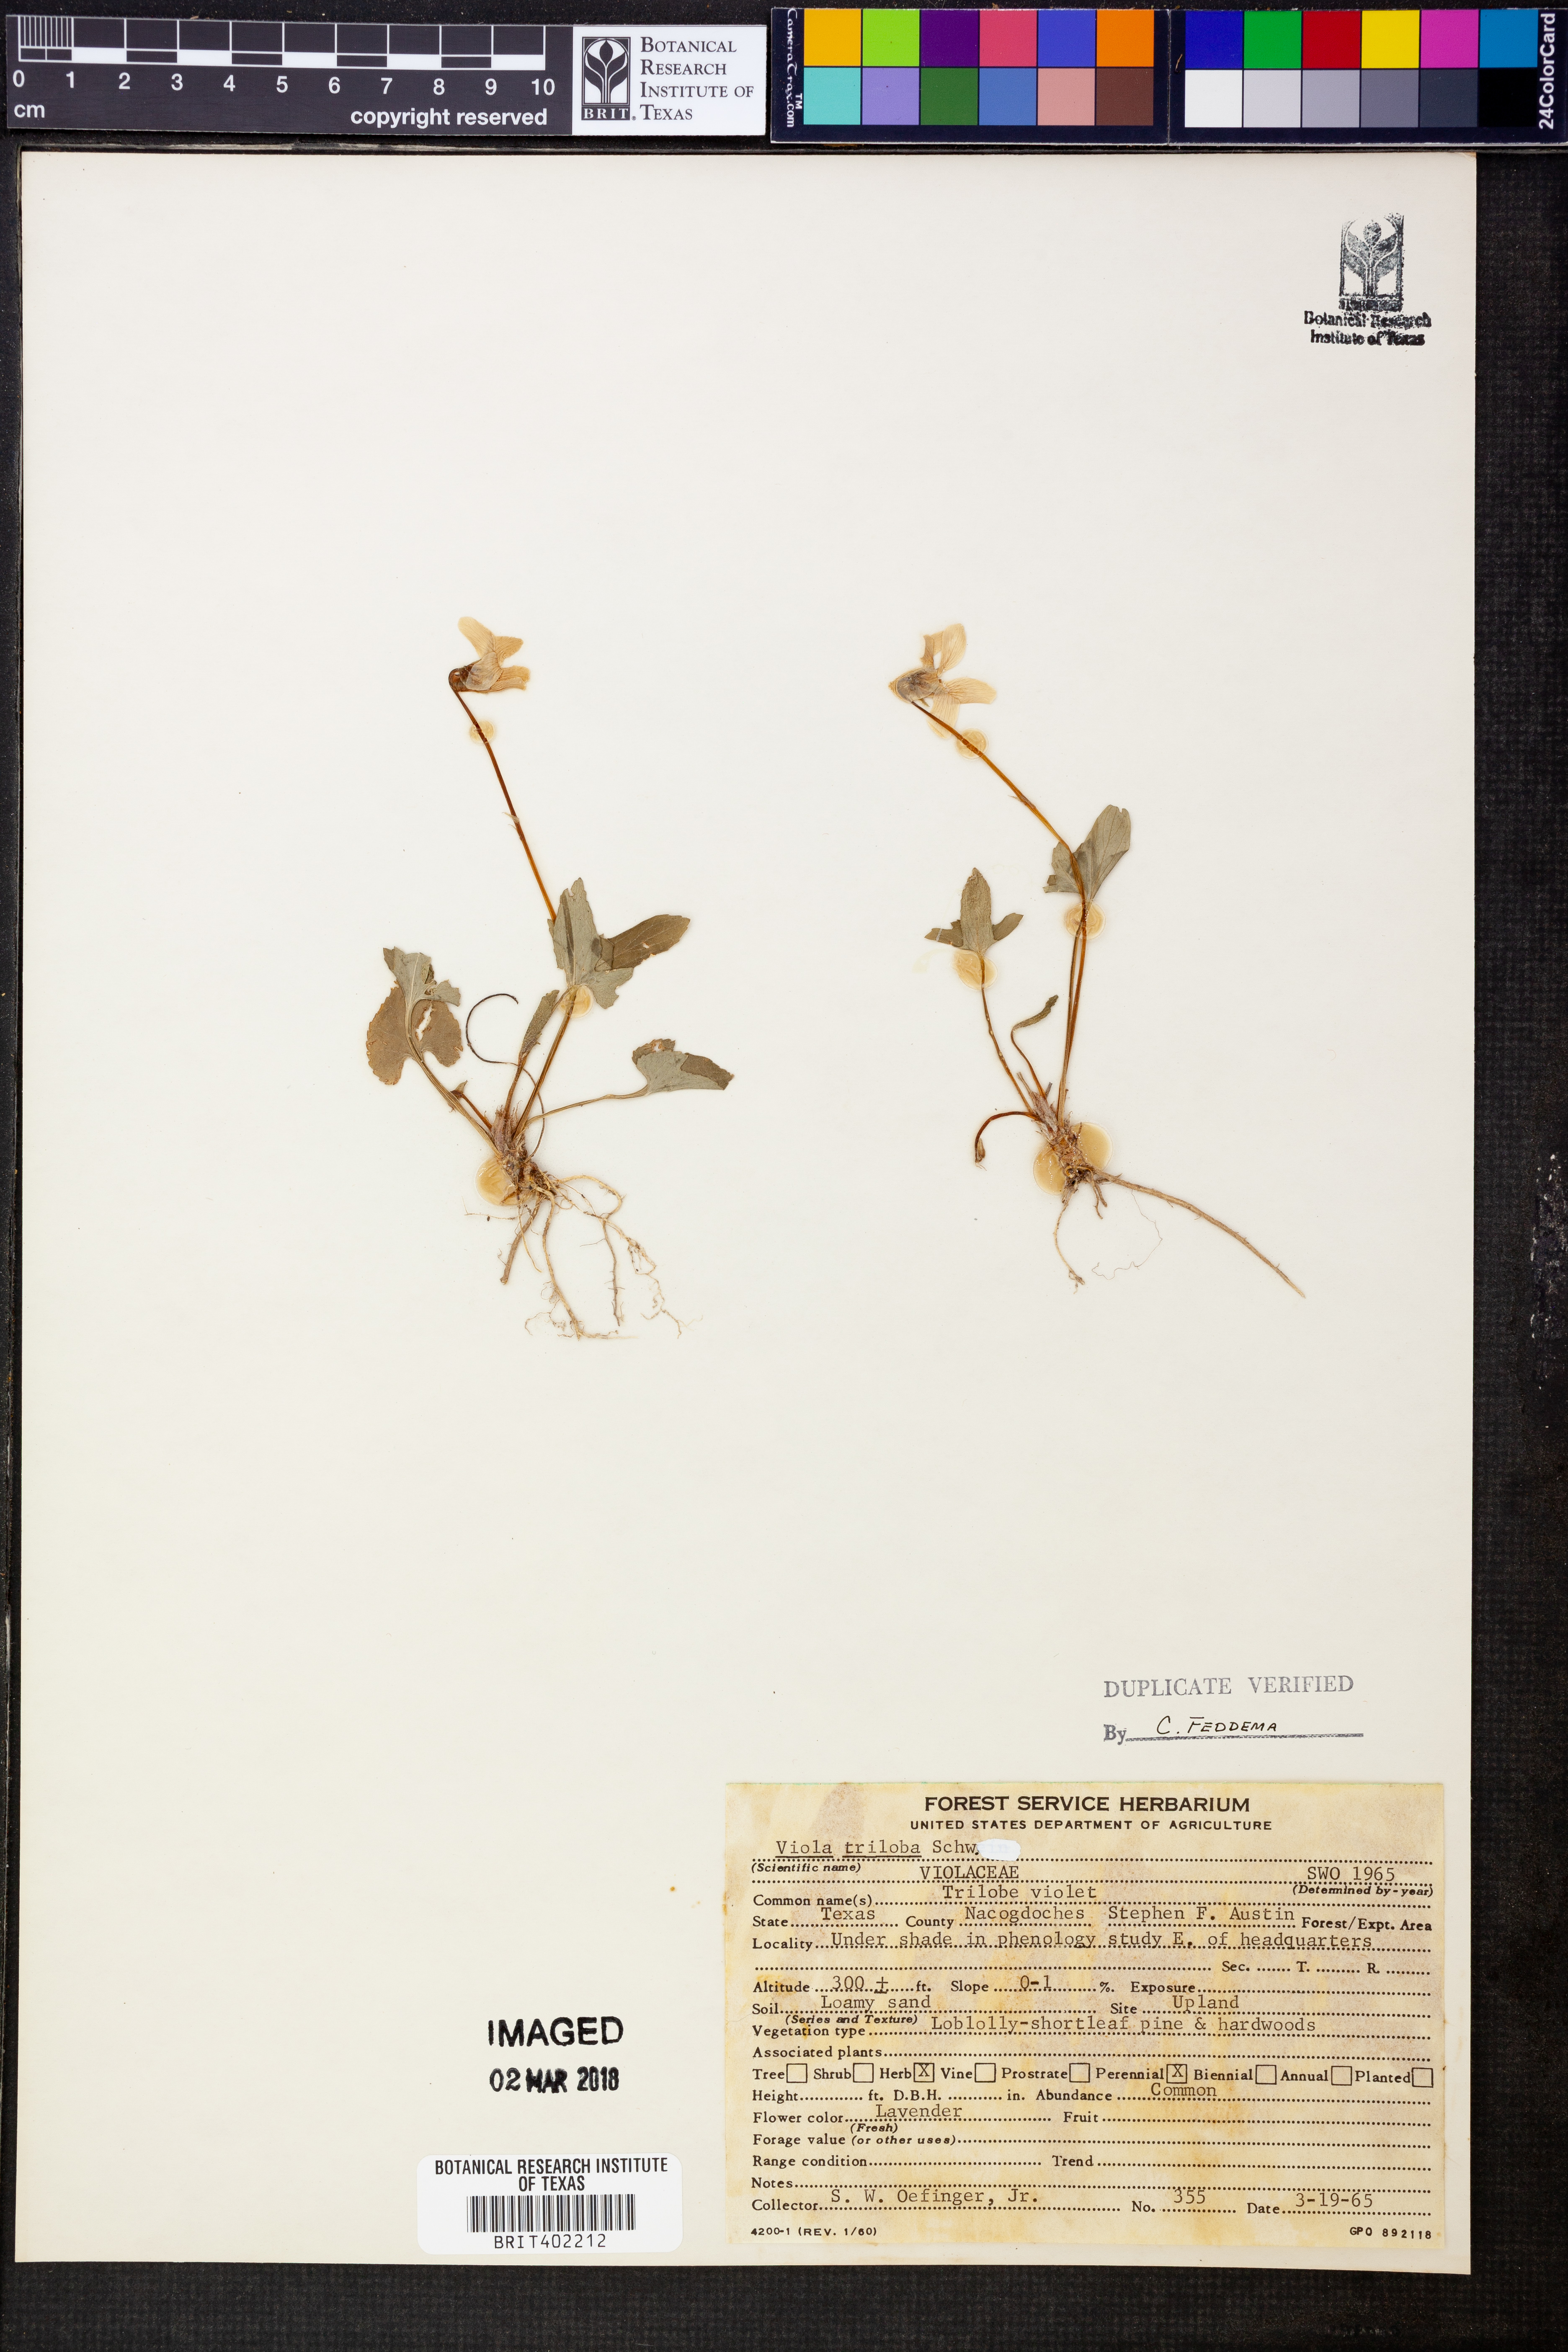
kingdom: Plantae
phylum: Tracheophyta
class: Magnoliopsida
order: Malpighiales
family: Violaceae
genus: Viola
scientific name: Viola palmata
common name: Early blue violet
